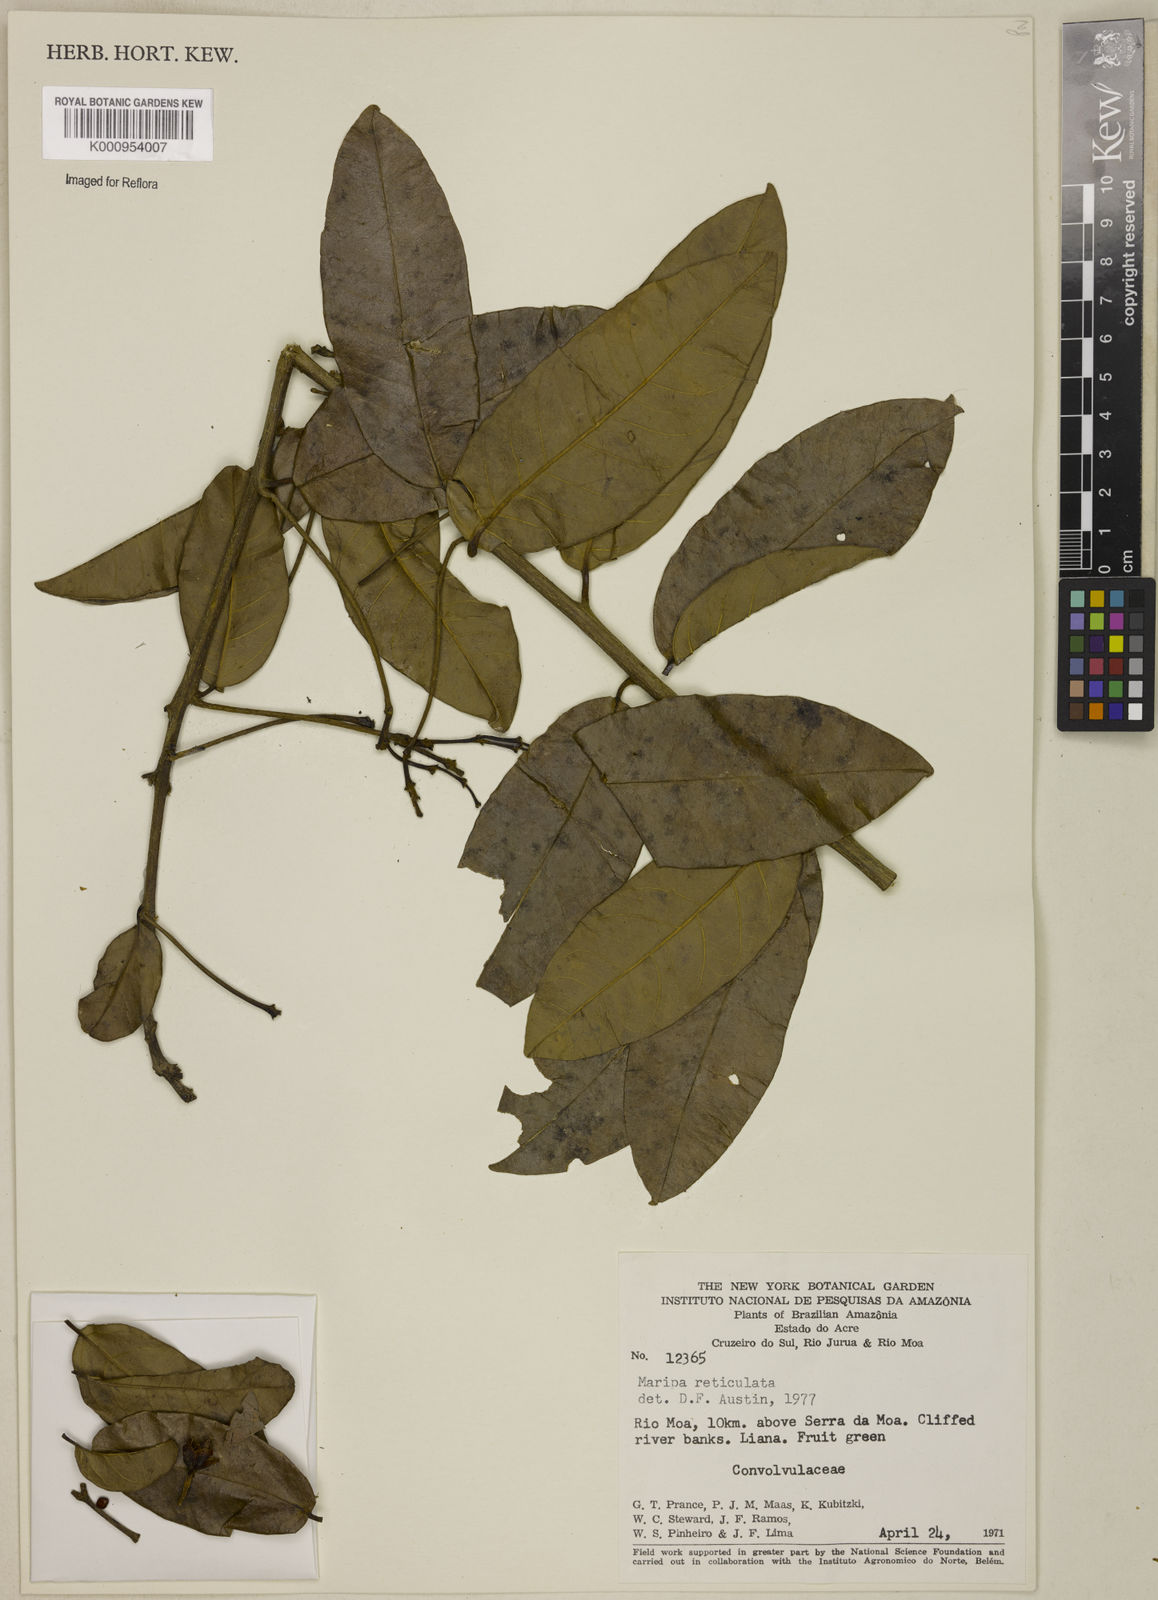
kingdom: Plantae
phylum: Tracheophyta
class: Magnoliopsida
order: Solanales
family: Convolvulaceae
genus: Maripa
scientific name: Maripa reticulata
